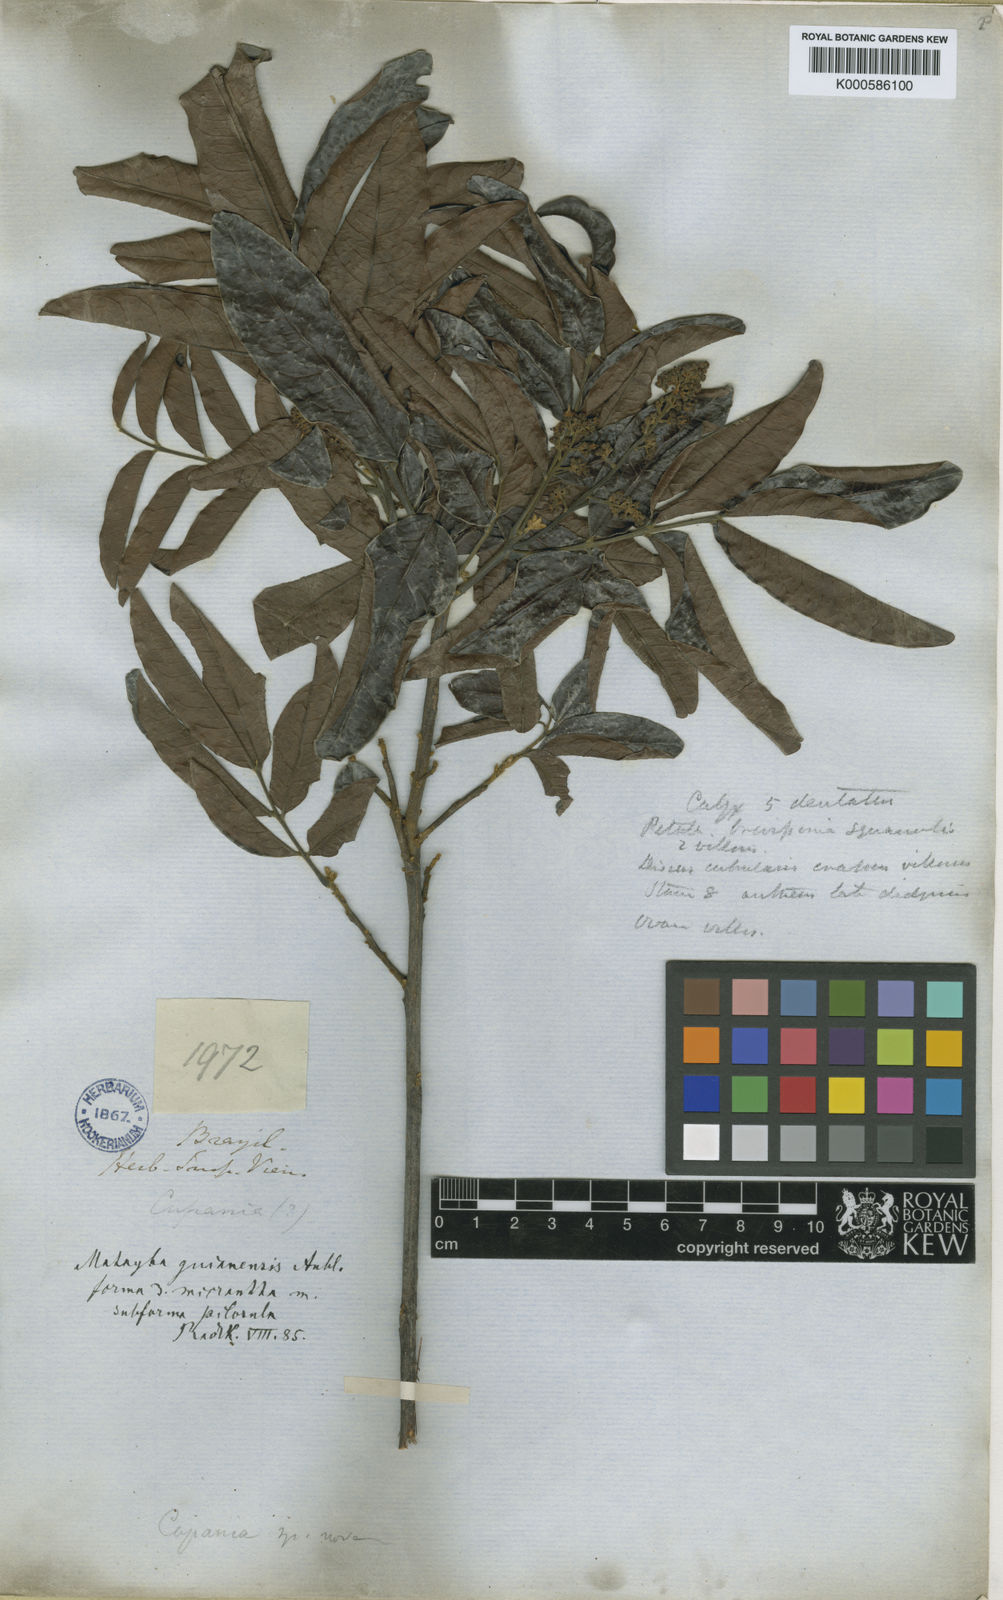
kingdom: Plantae
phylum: Tracheophyta
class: Magnoliopsida
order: Sapindales
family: Sapindaceae
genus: Matayba
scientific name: Matayba guianensis
